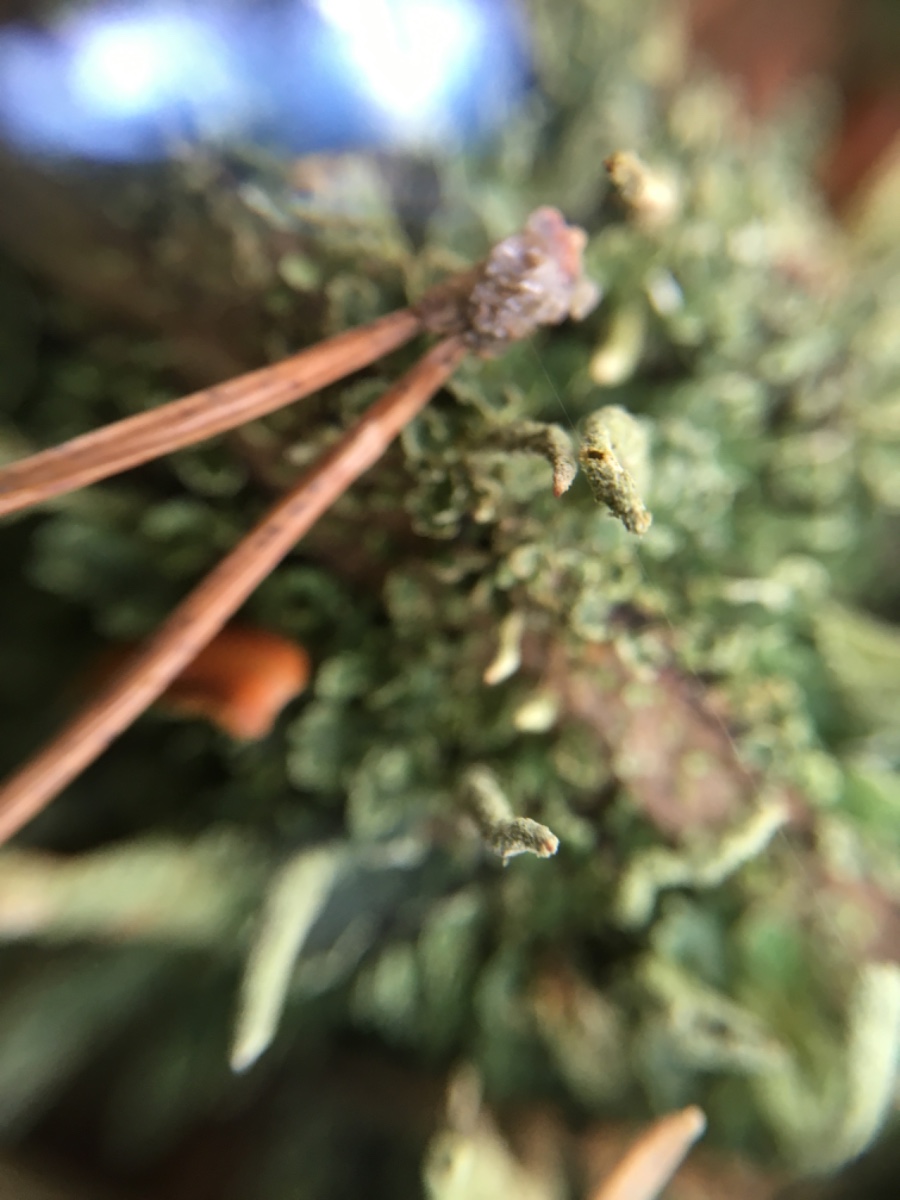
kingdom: Fungi
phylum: Ascomycota
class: Lecanoromycetes
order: Lecanorales
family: Cladoniaceae
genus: Cladonia
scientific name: Cladonia coniocraea
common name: træfods-bægerlav
